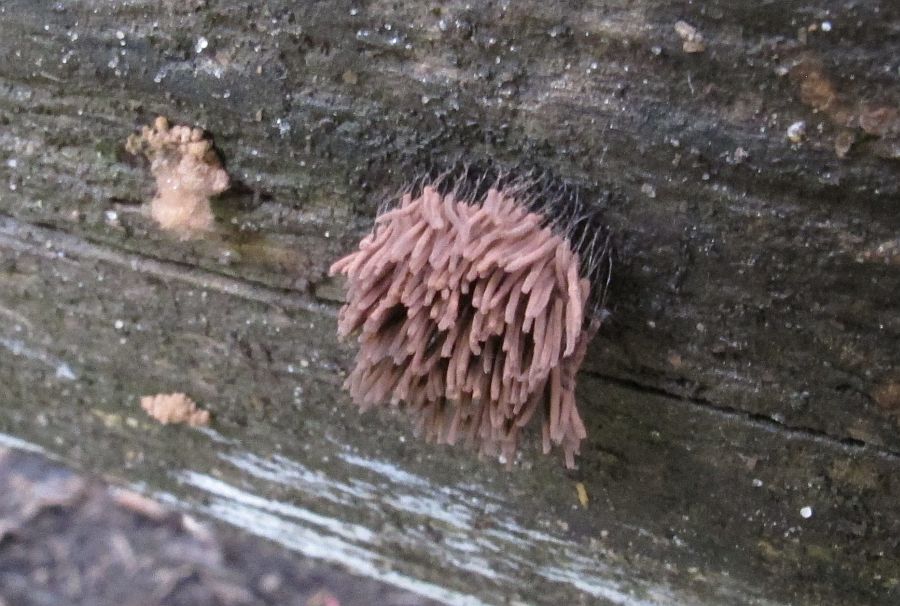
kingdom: Protozoa
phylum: Mycetozoa
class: Myxomycetes
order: Stemonitidales
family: Stemonitidaceae
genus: Stemonitis
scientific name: Stemonitis axifera
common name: rødbrun støvkølle
